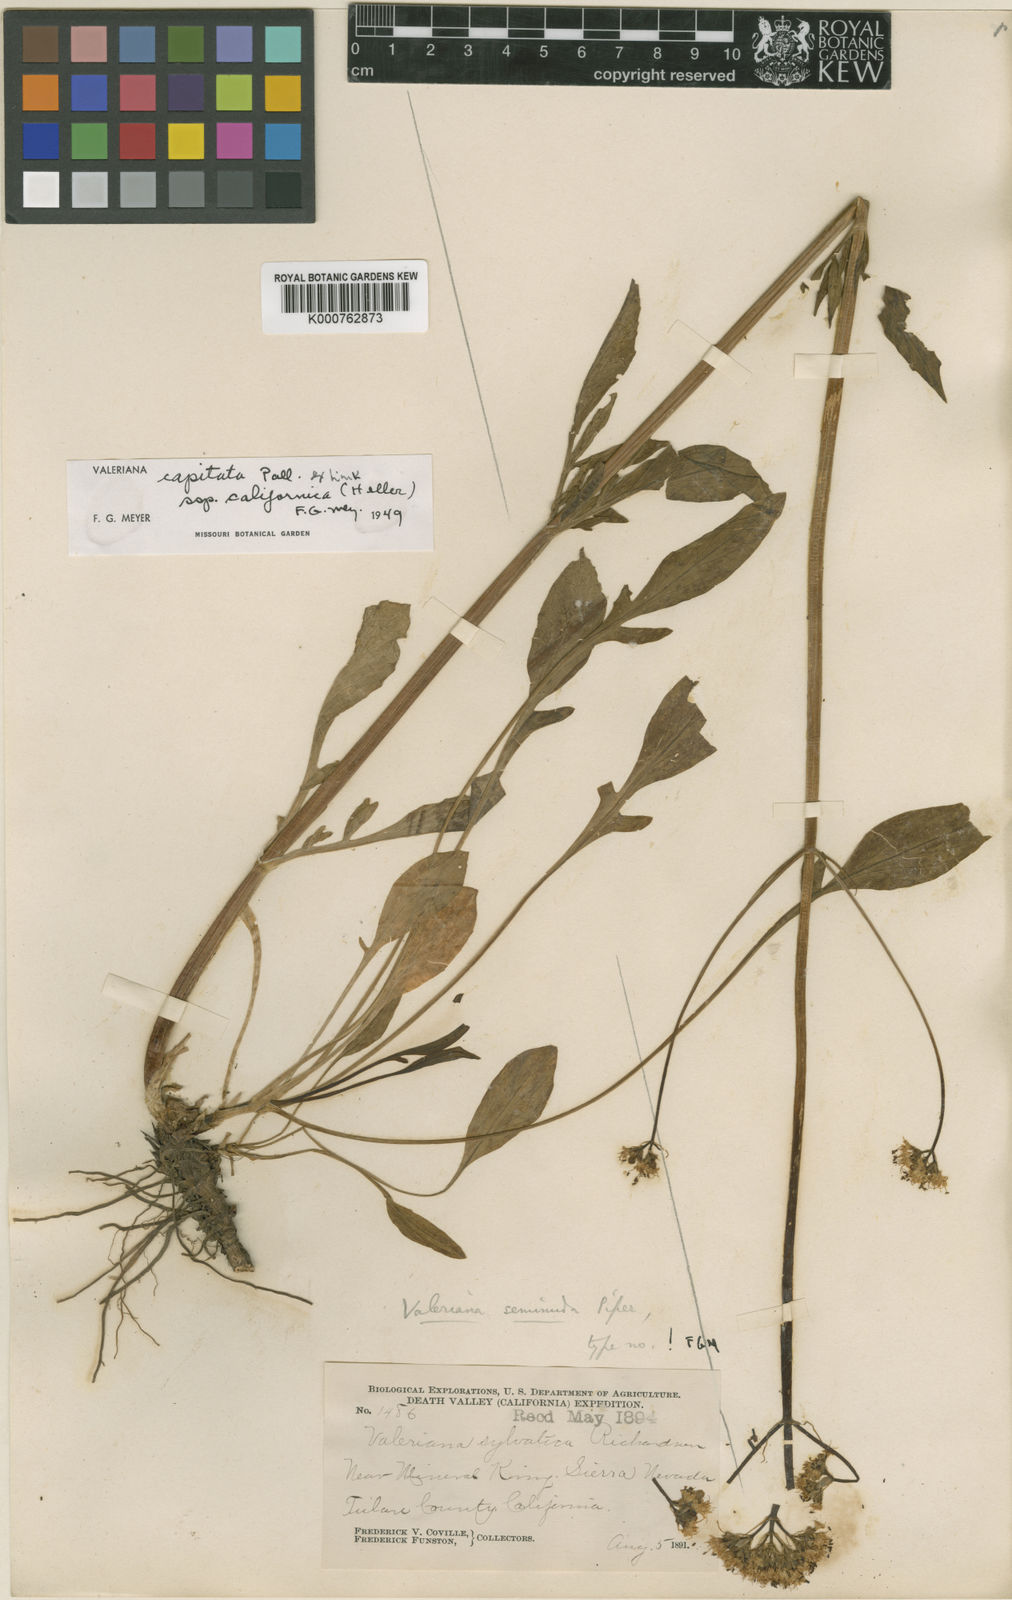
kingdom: Plantae
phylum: Tracheophyta
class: Magnoliopsida
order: Dipsacales
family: Caprifoliaceae
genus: Valeriana
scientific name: Valeriana californica
